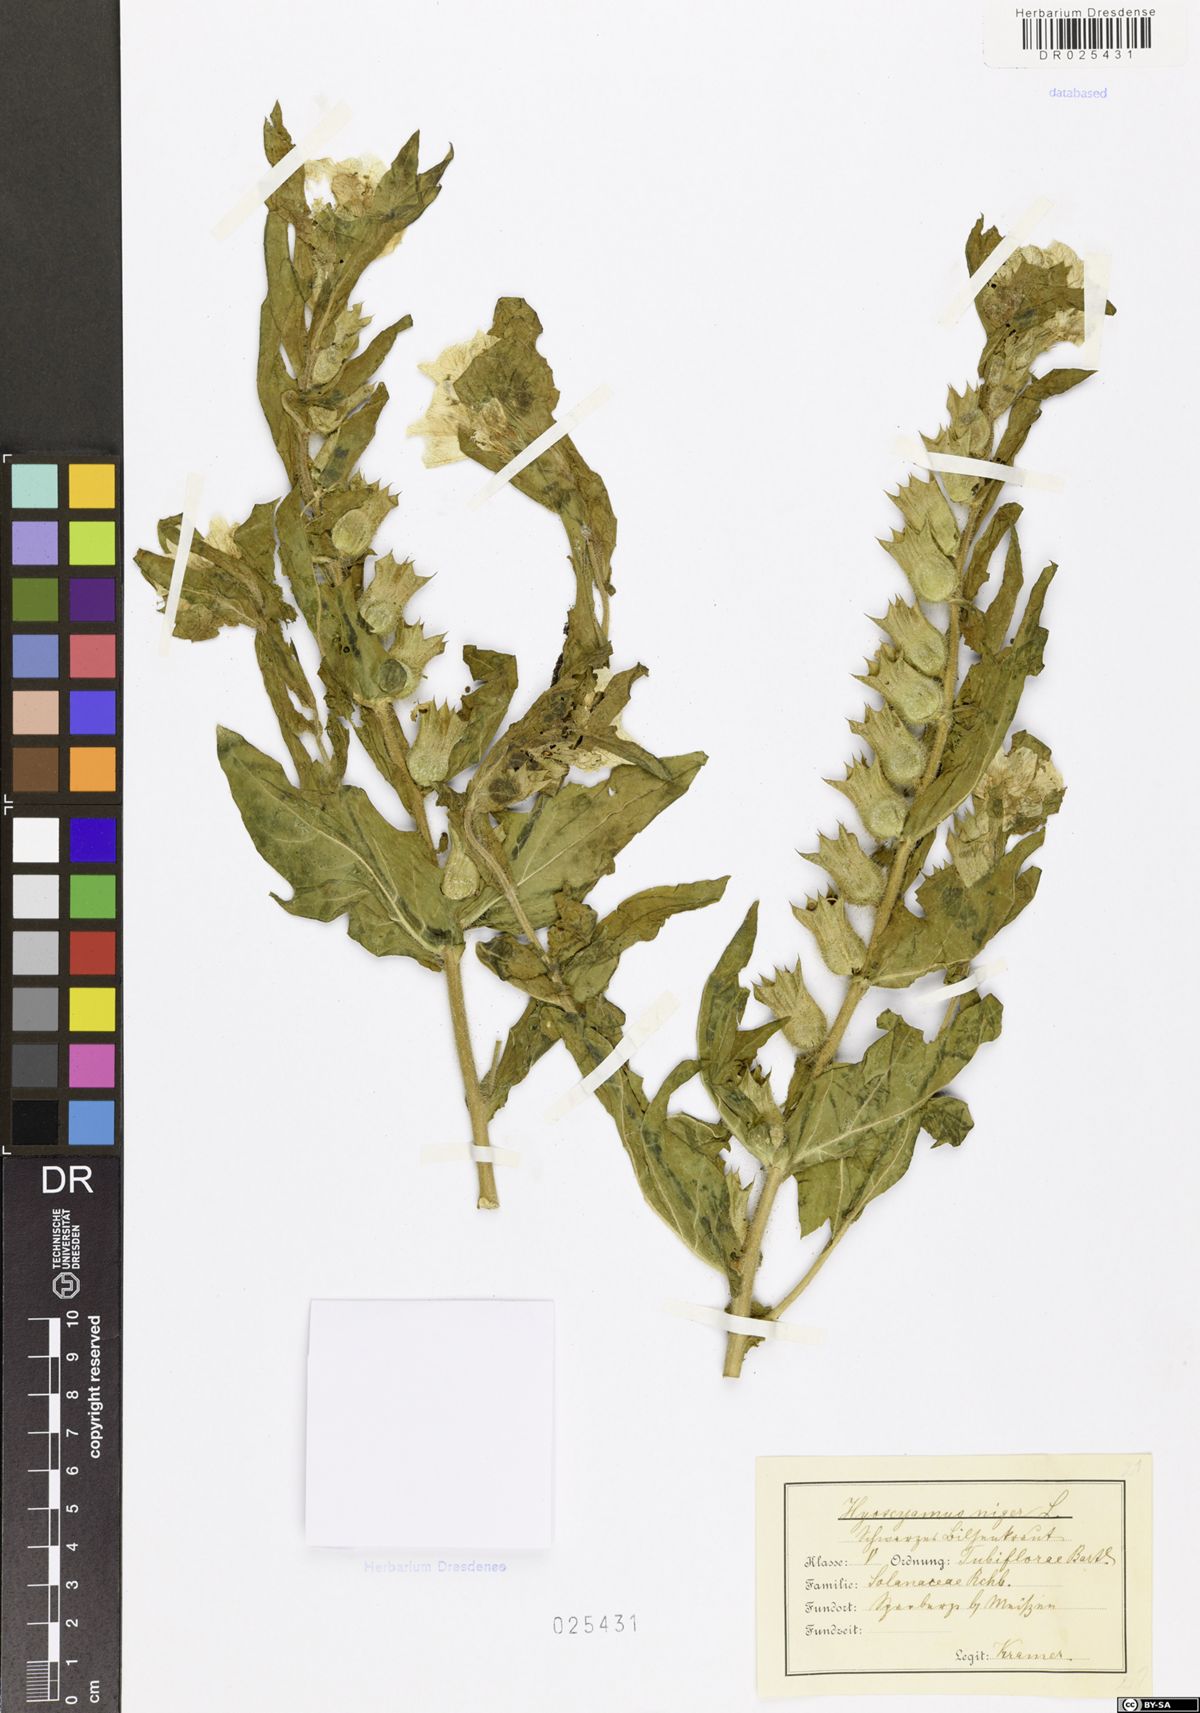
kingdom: Plantae
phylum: Tracheophyta
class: Magnoliopsida
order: Solanales
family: Solanaceae
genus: Hyoscyamus
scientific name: Hyoscyamus niger
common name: Henbane
